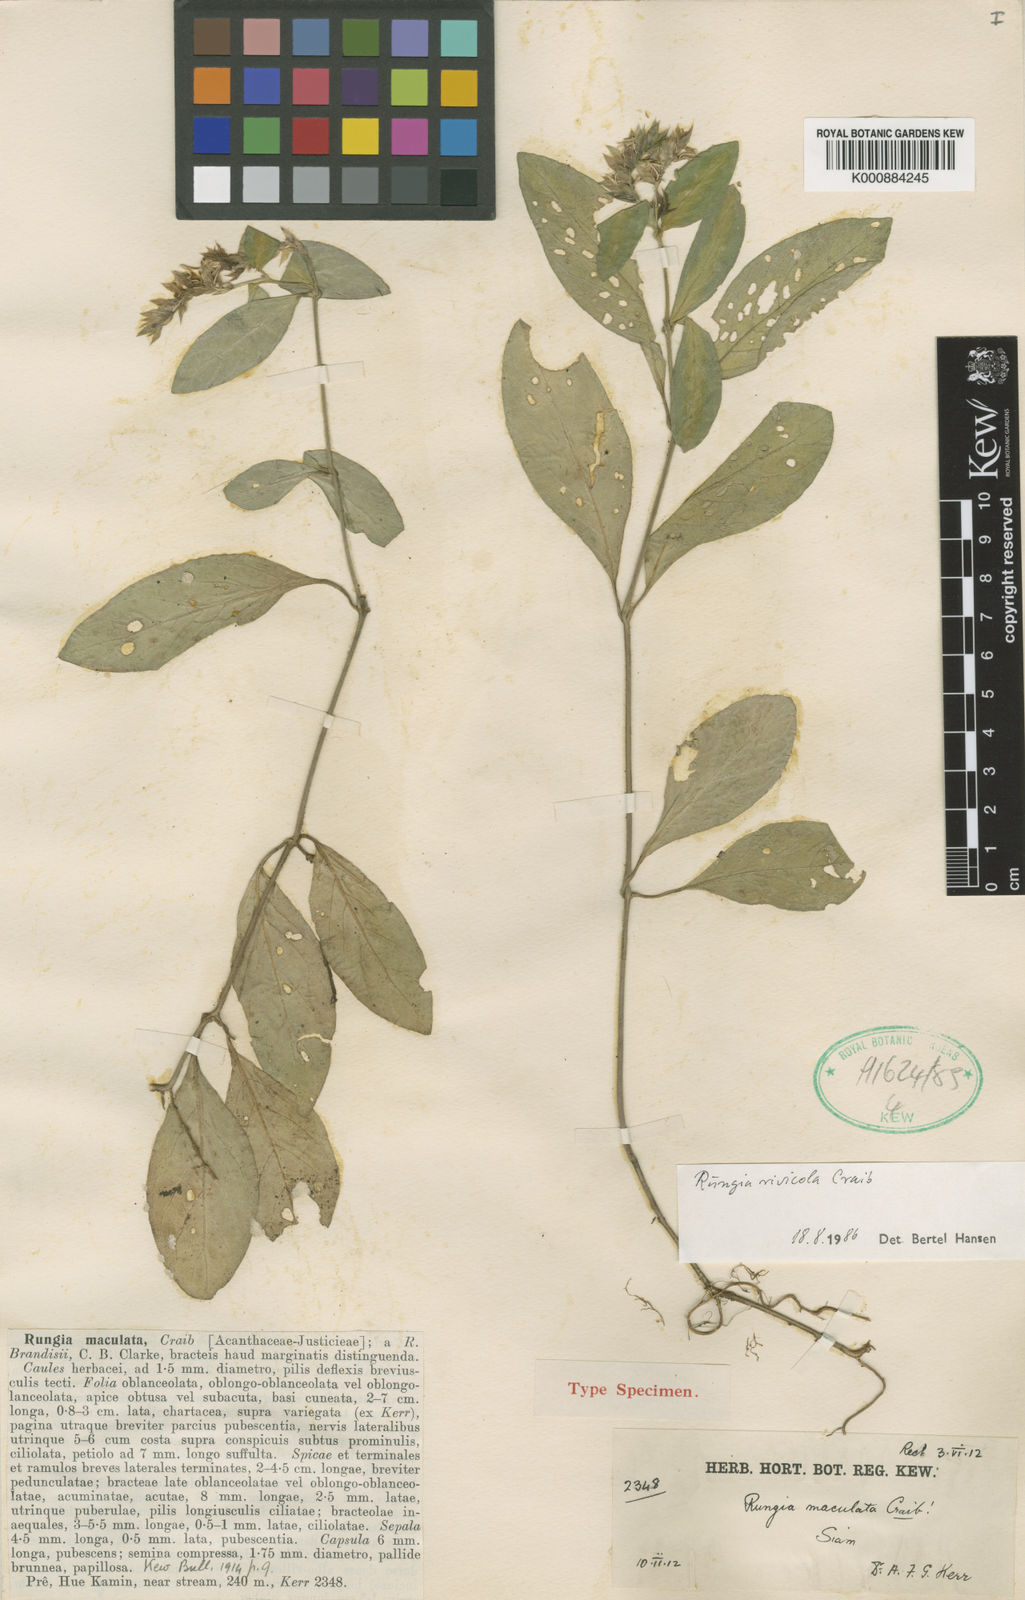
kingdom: Plantae
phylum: Tracheophyta
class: Magnoliopsida
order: Lamiales
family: Acanthaceae
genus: Justicia
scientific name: Justicia
